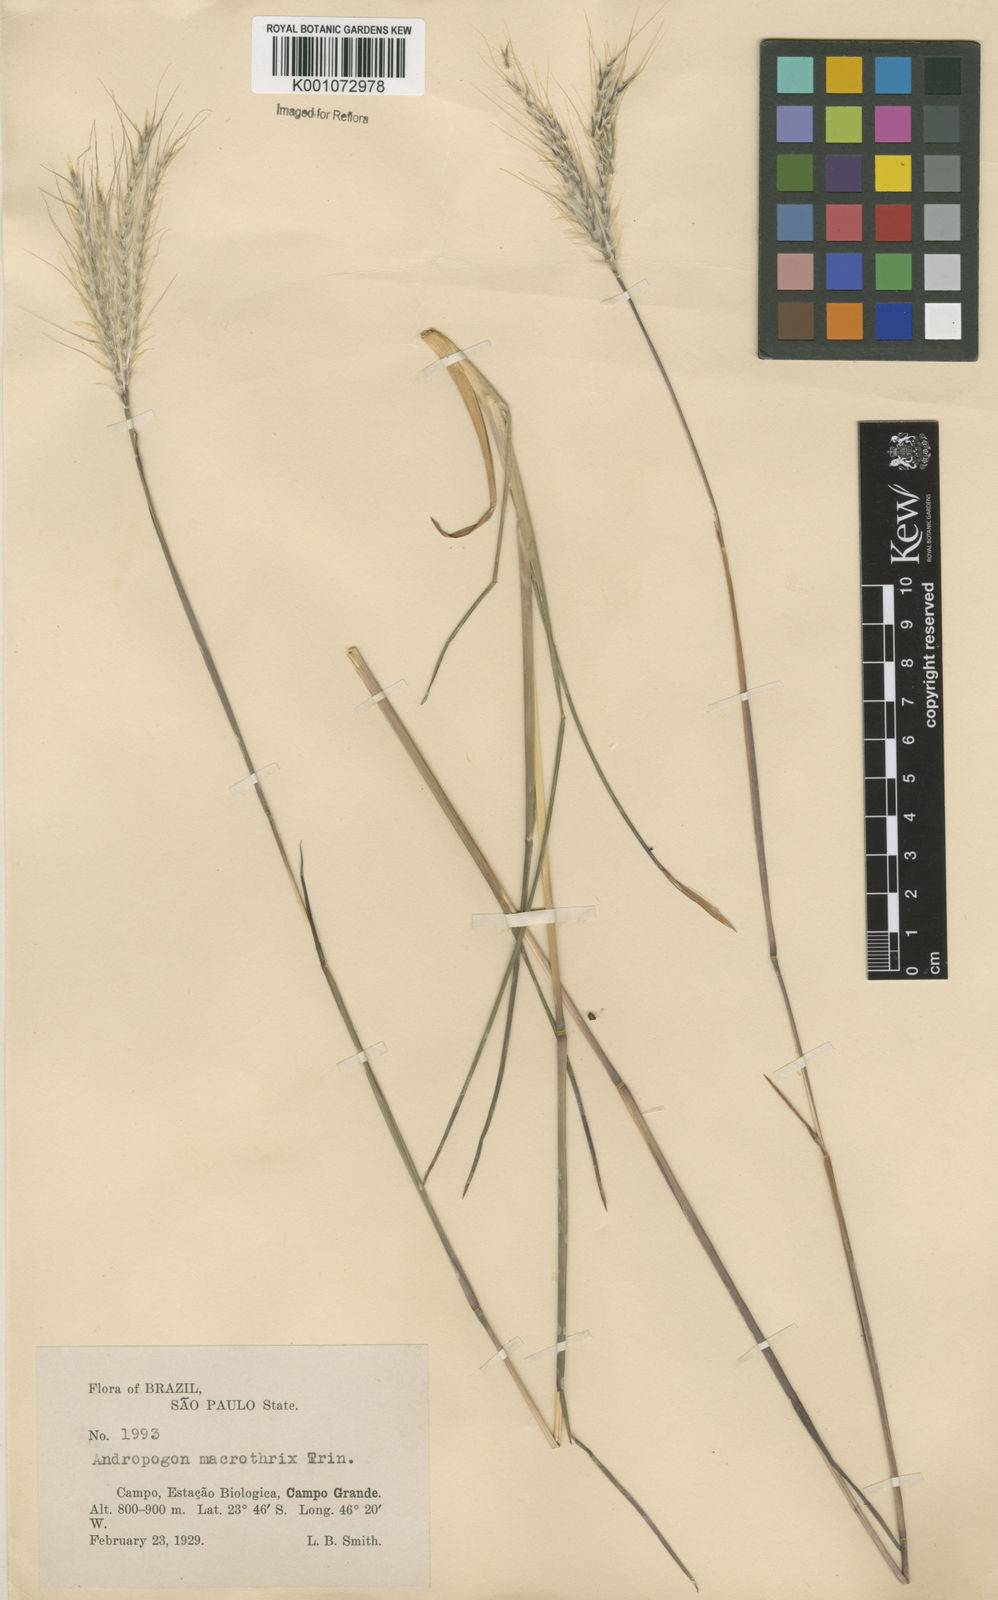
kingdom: Plantae
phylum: Tracheophyta
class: Liliopsida
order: Poales
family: Poaceae
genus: Andropogon
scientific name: Andropogon macrothrix
